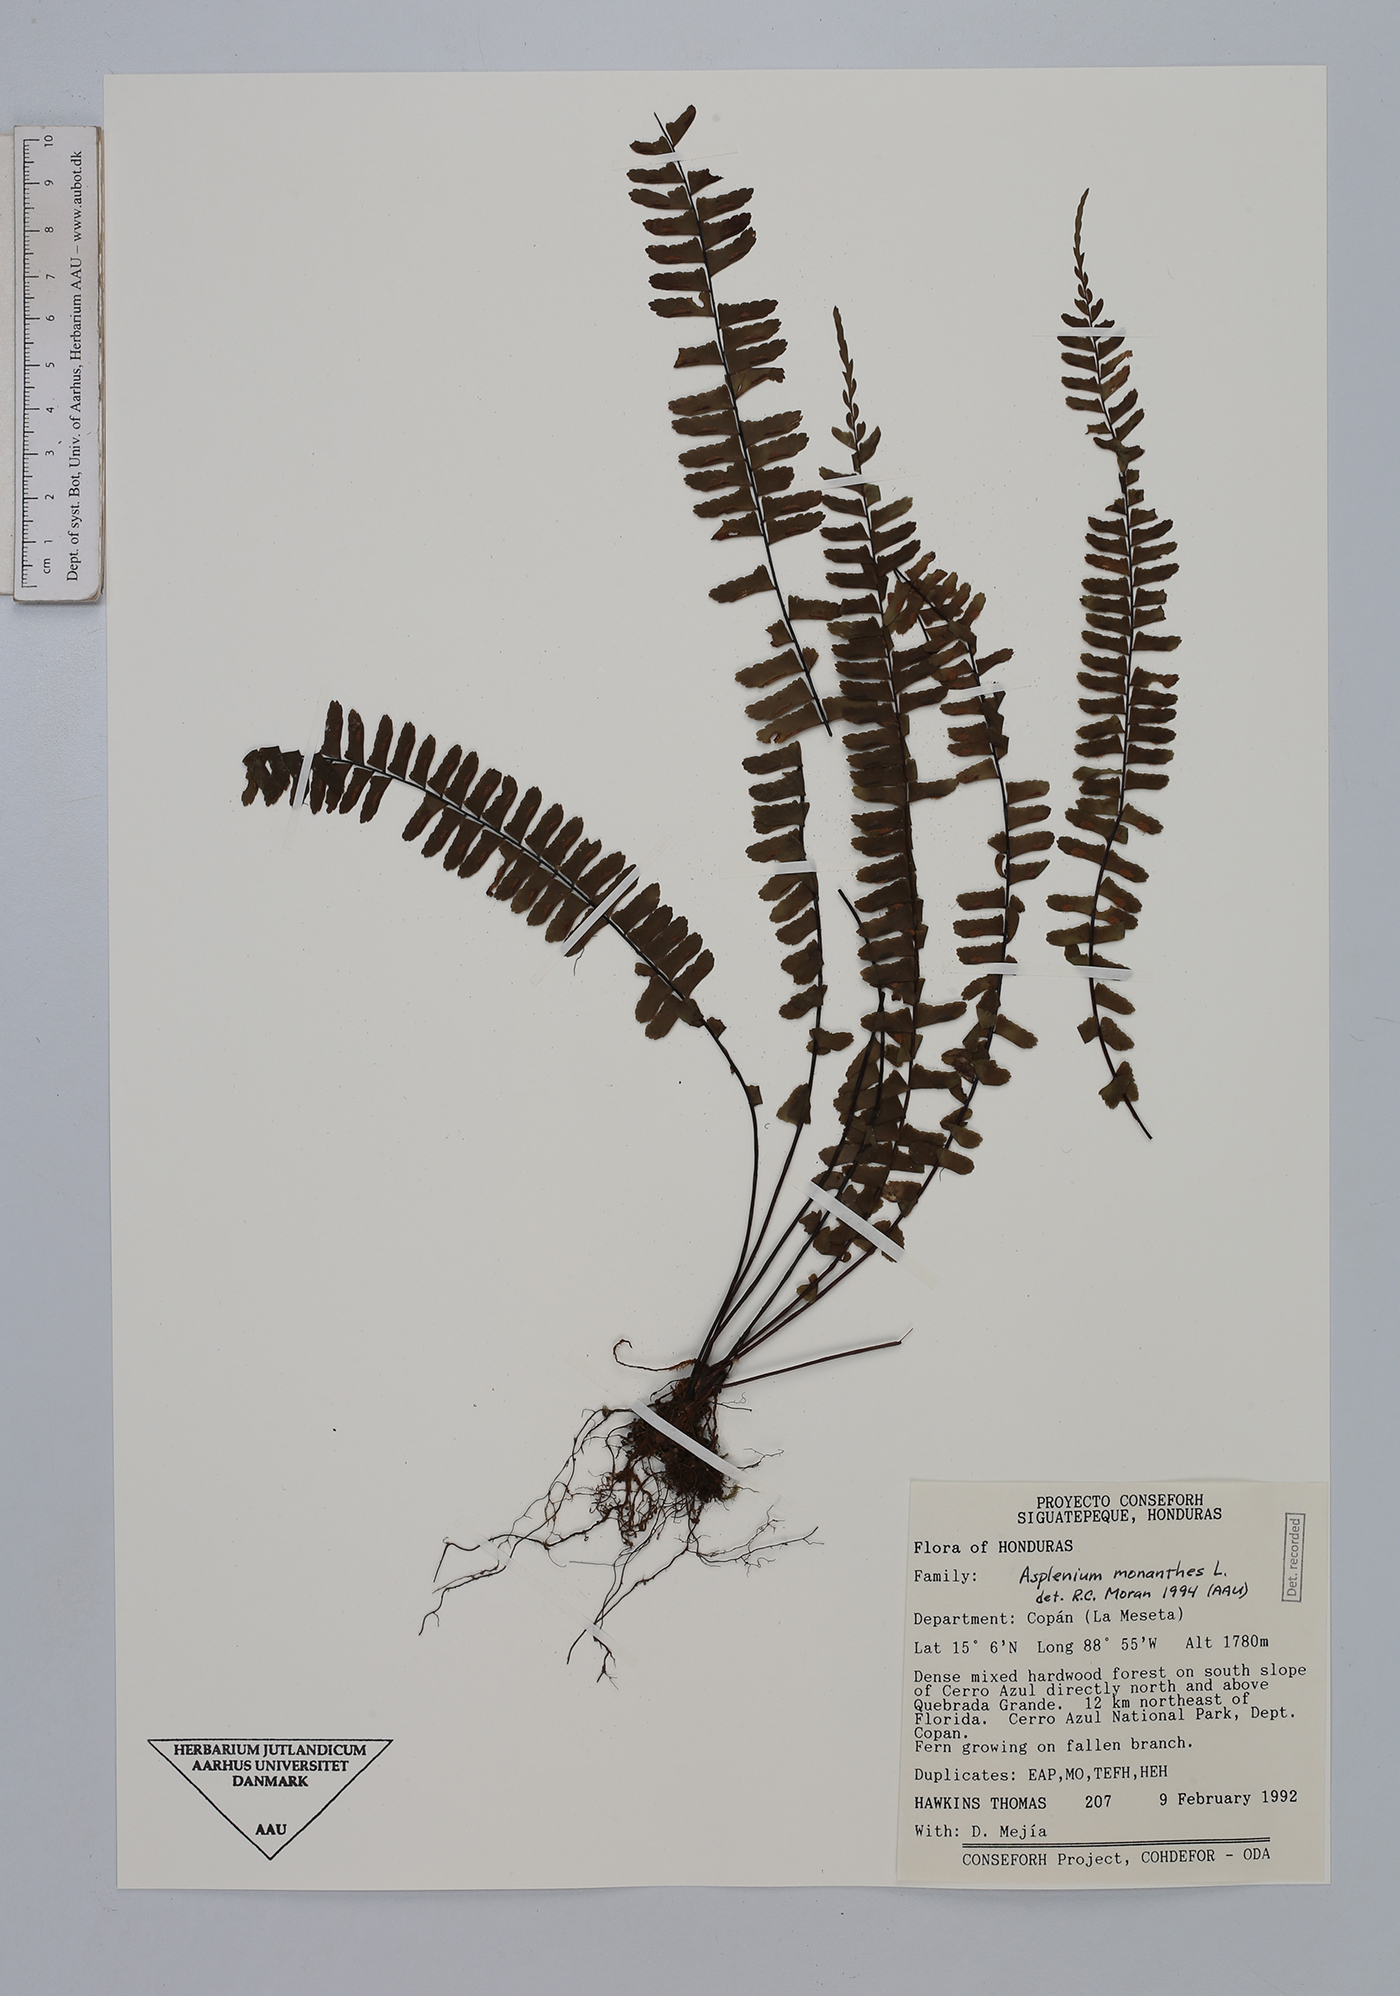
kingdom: Plantae
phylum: Tracheophyta
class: Polypodiopsida
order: Polypodiales
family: Aspleniaceae
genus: Asplenium
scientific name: Asplenium monanthes
